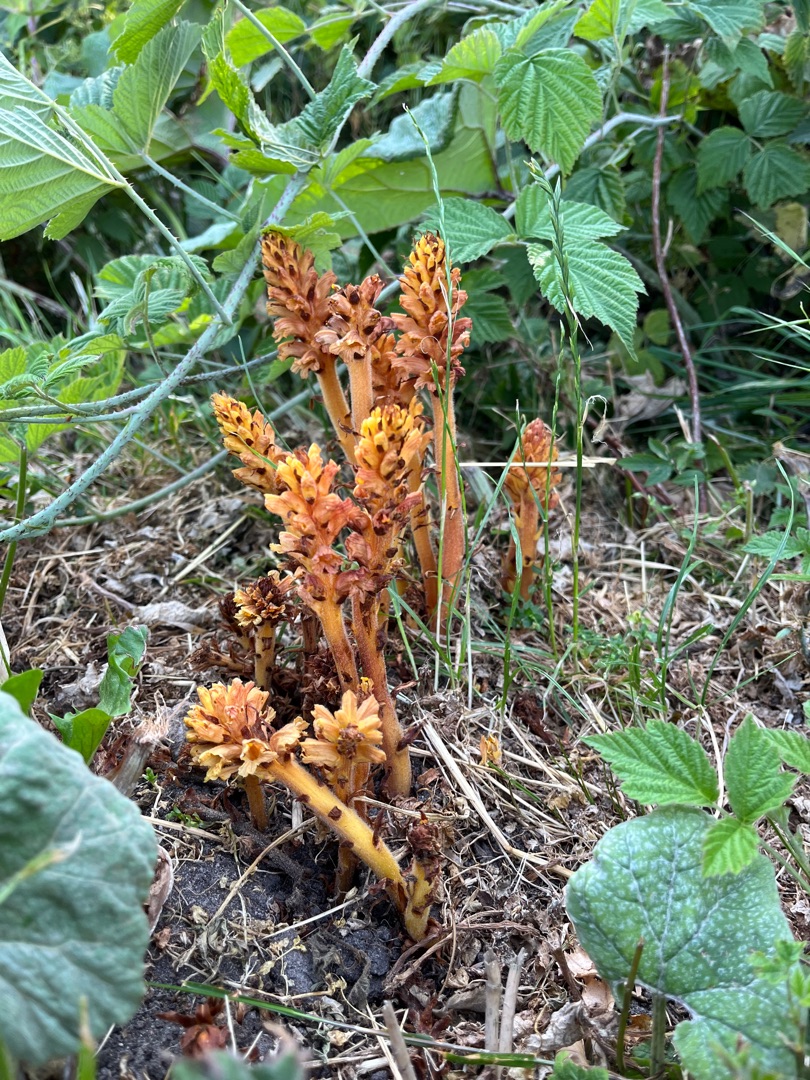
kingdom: Plantae
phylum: Tracheophyta
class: Magnoliopsida
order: Lamiales
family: Orobanchaceae
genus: Orobanche
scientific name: Orobanche flava
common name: Gul gyvelkvæler
